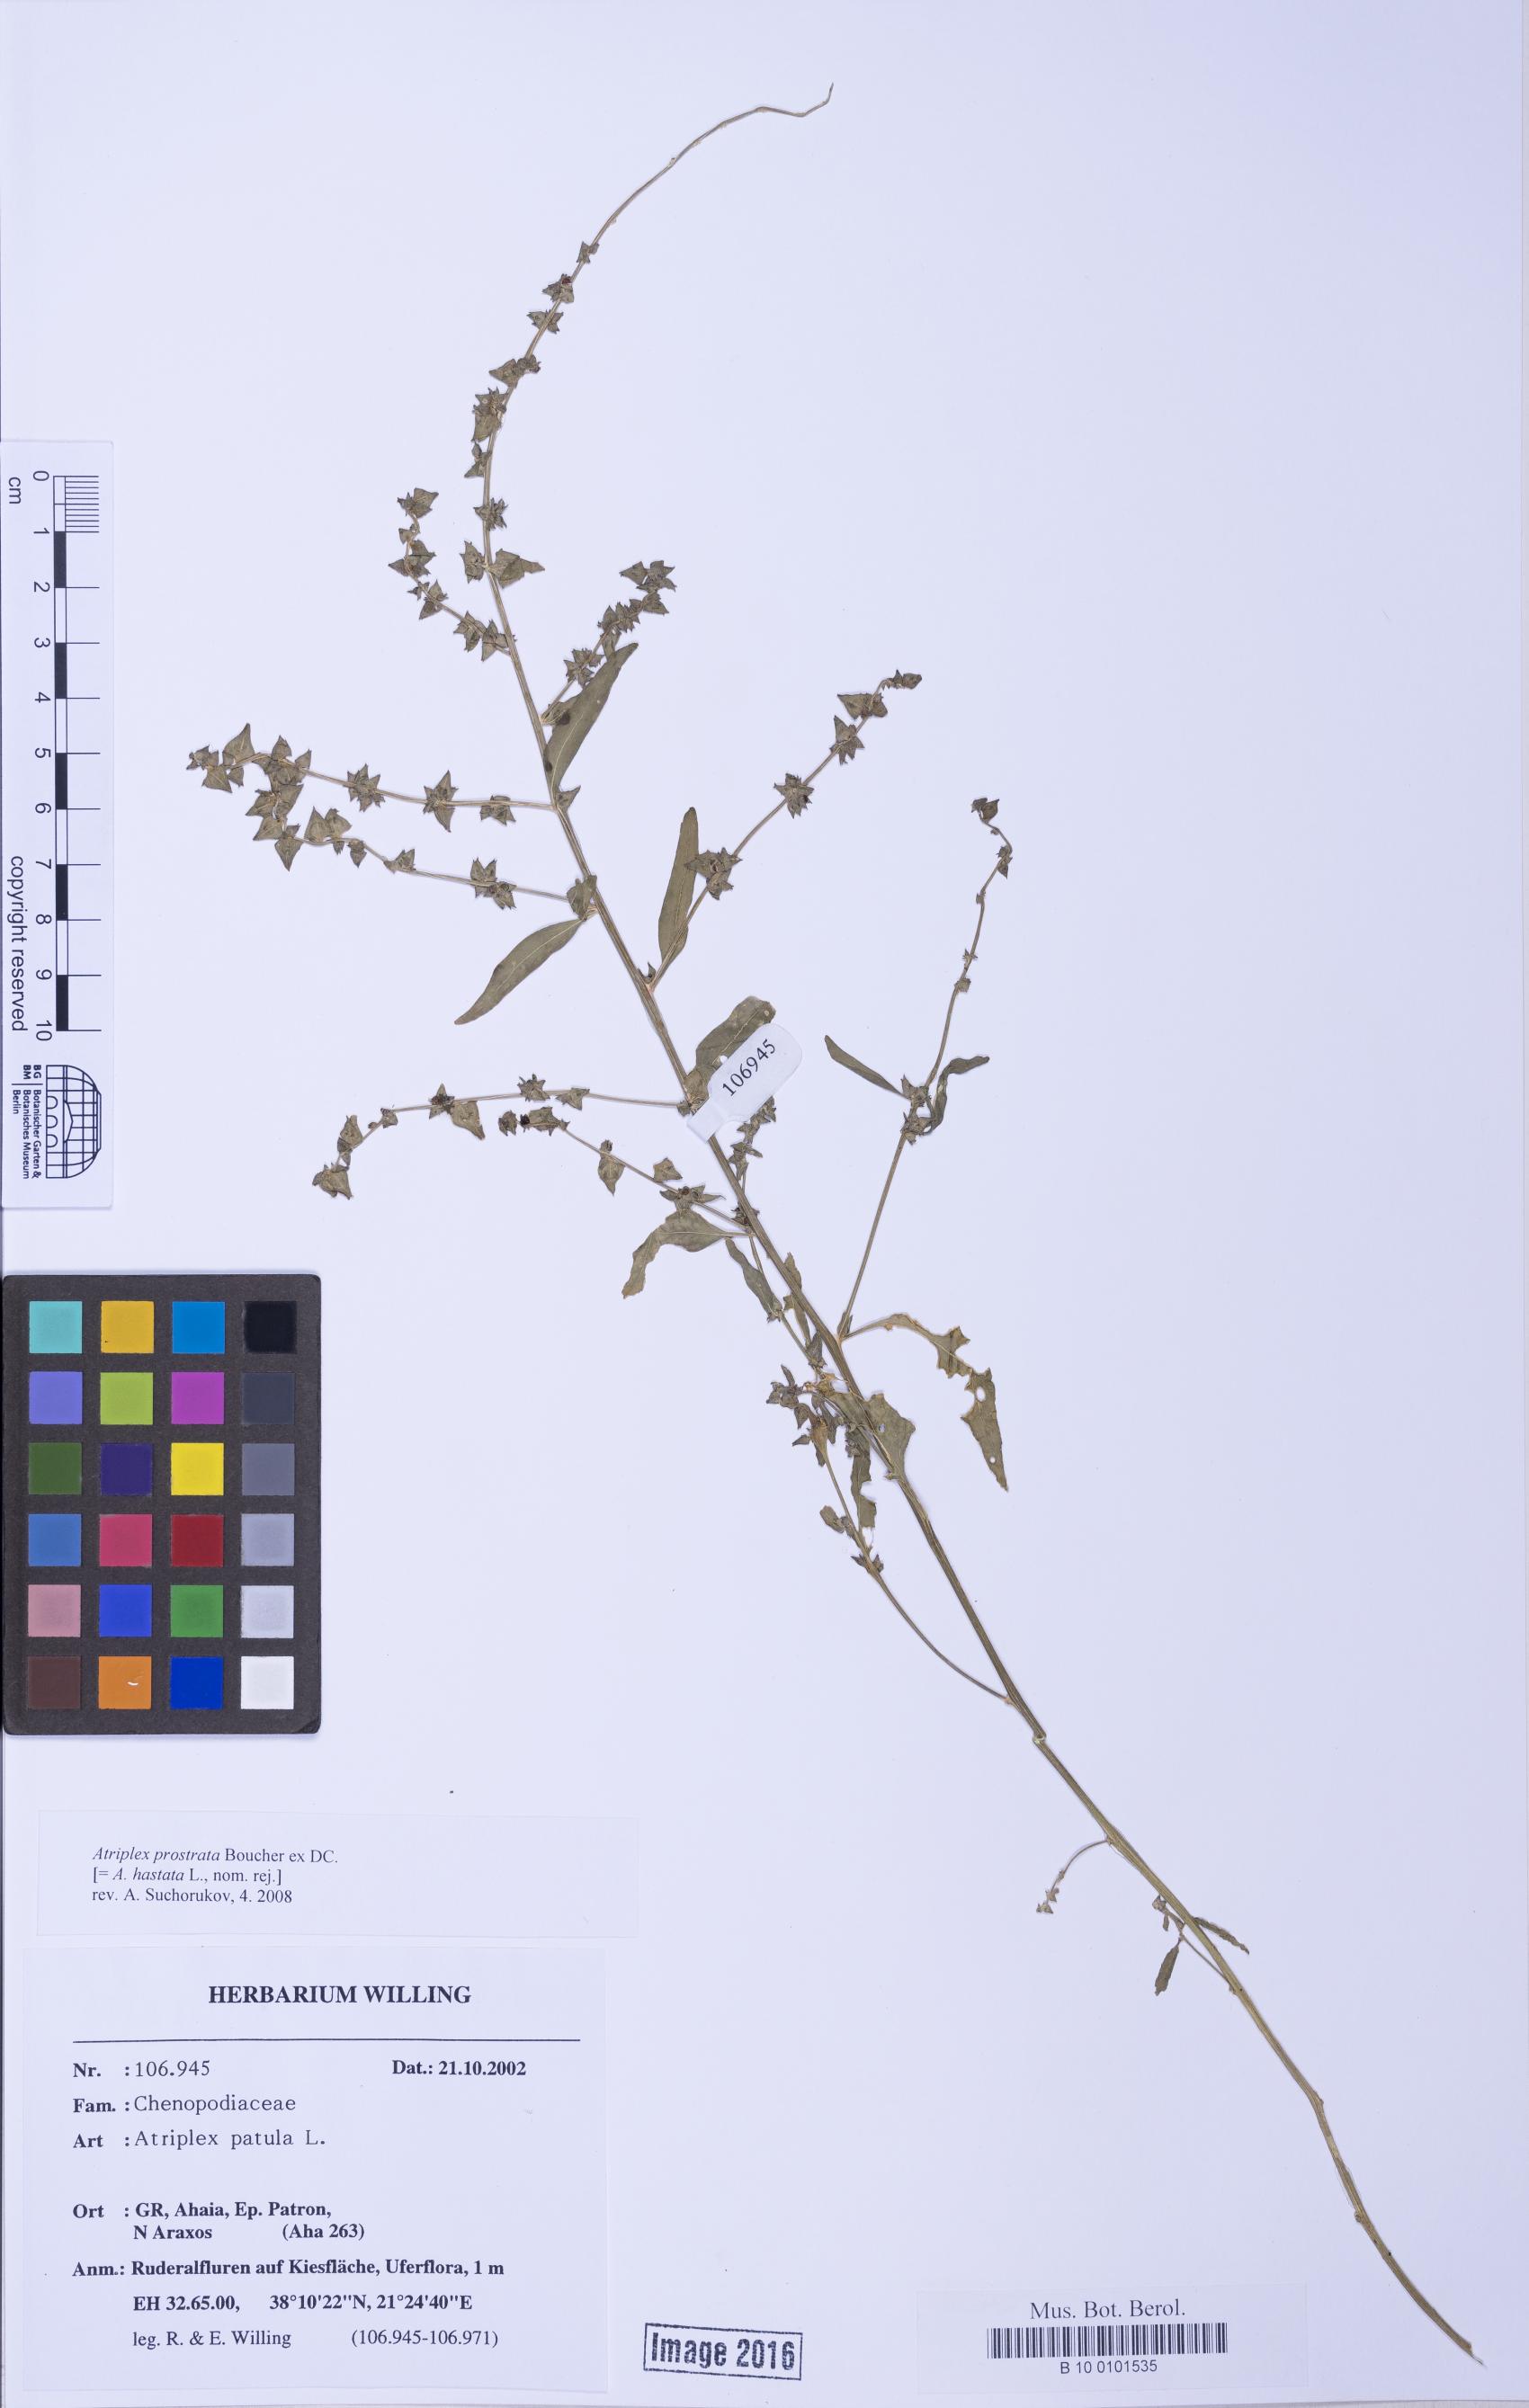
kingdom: Plantae
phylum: Tracheophyta
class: Magnoliopsida
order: Caryophyllales
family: Amaranthaceae
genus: Atriplex
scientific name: Atriplex prostrata
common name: Spear-leaved orache
